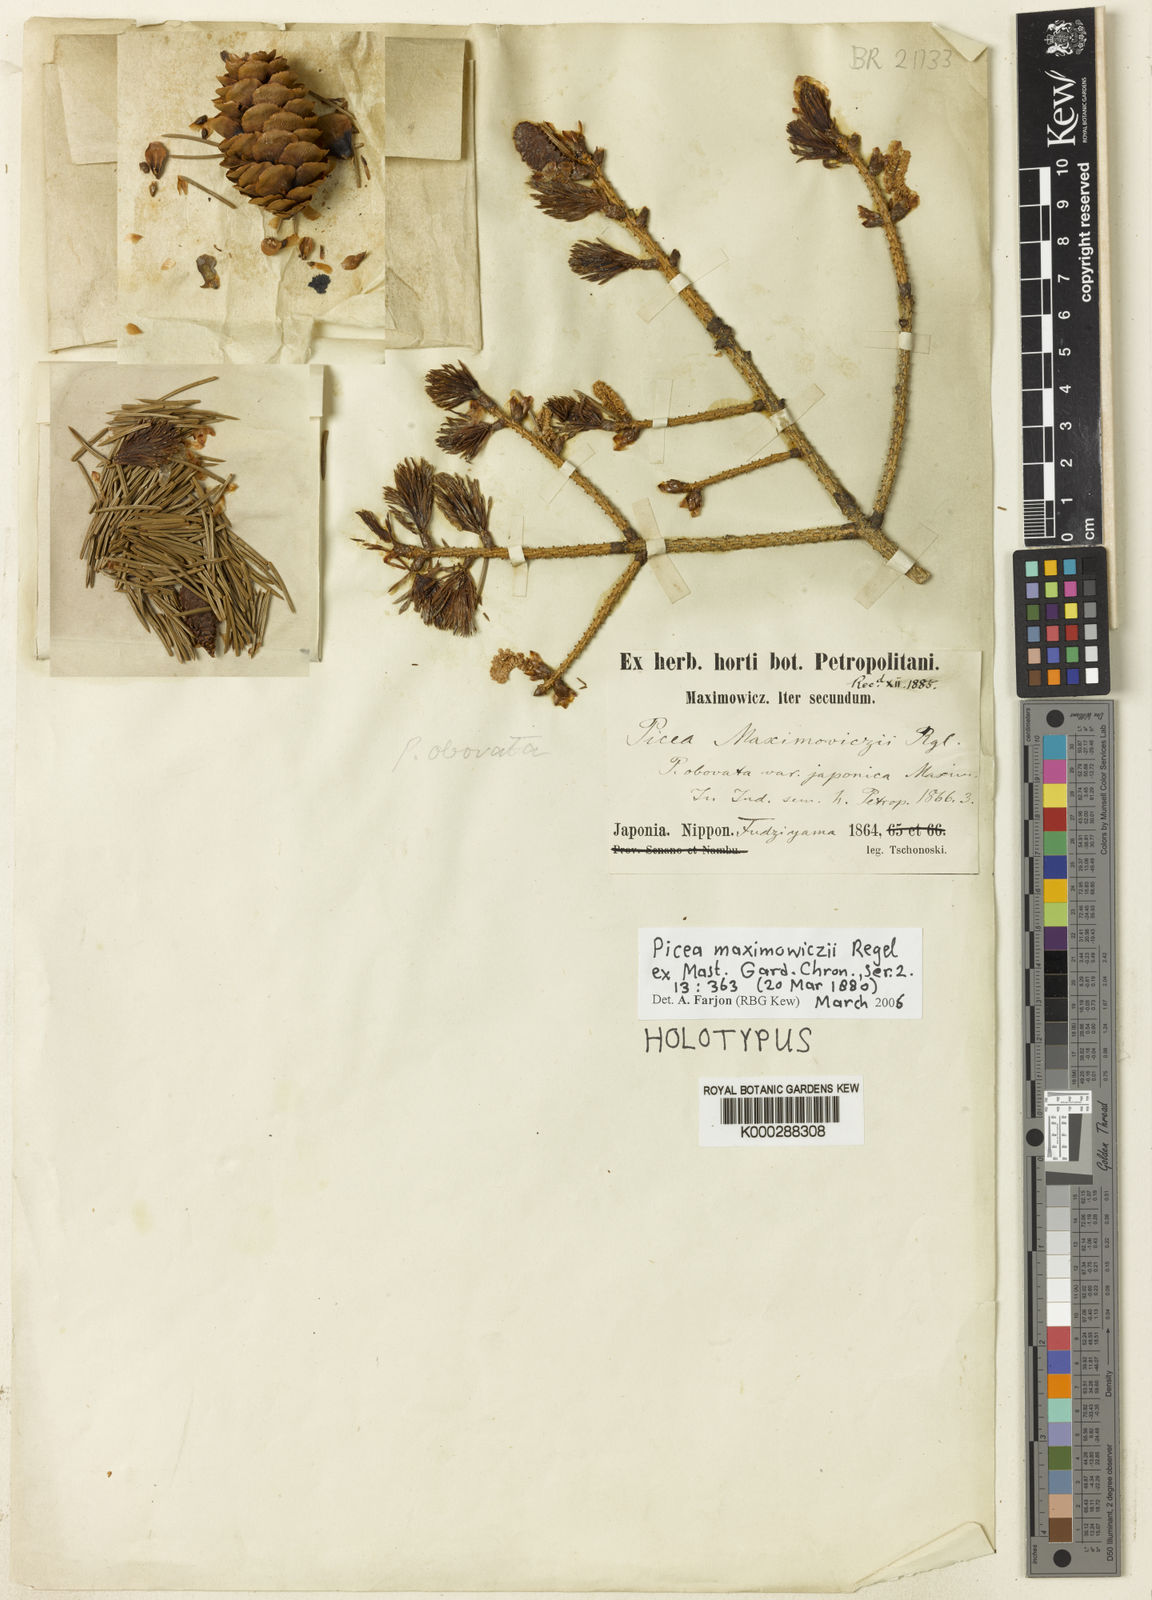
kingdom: Plantae
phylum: Tracheophyta
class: Pinopsida
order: Pinales
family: Pinaceae
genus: Picea
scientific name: Picea maximowiczii
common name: Japanese bush spruce
